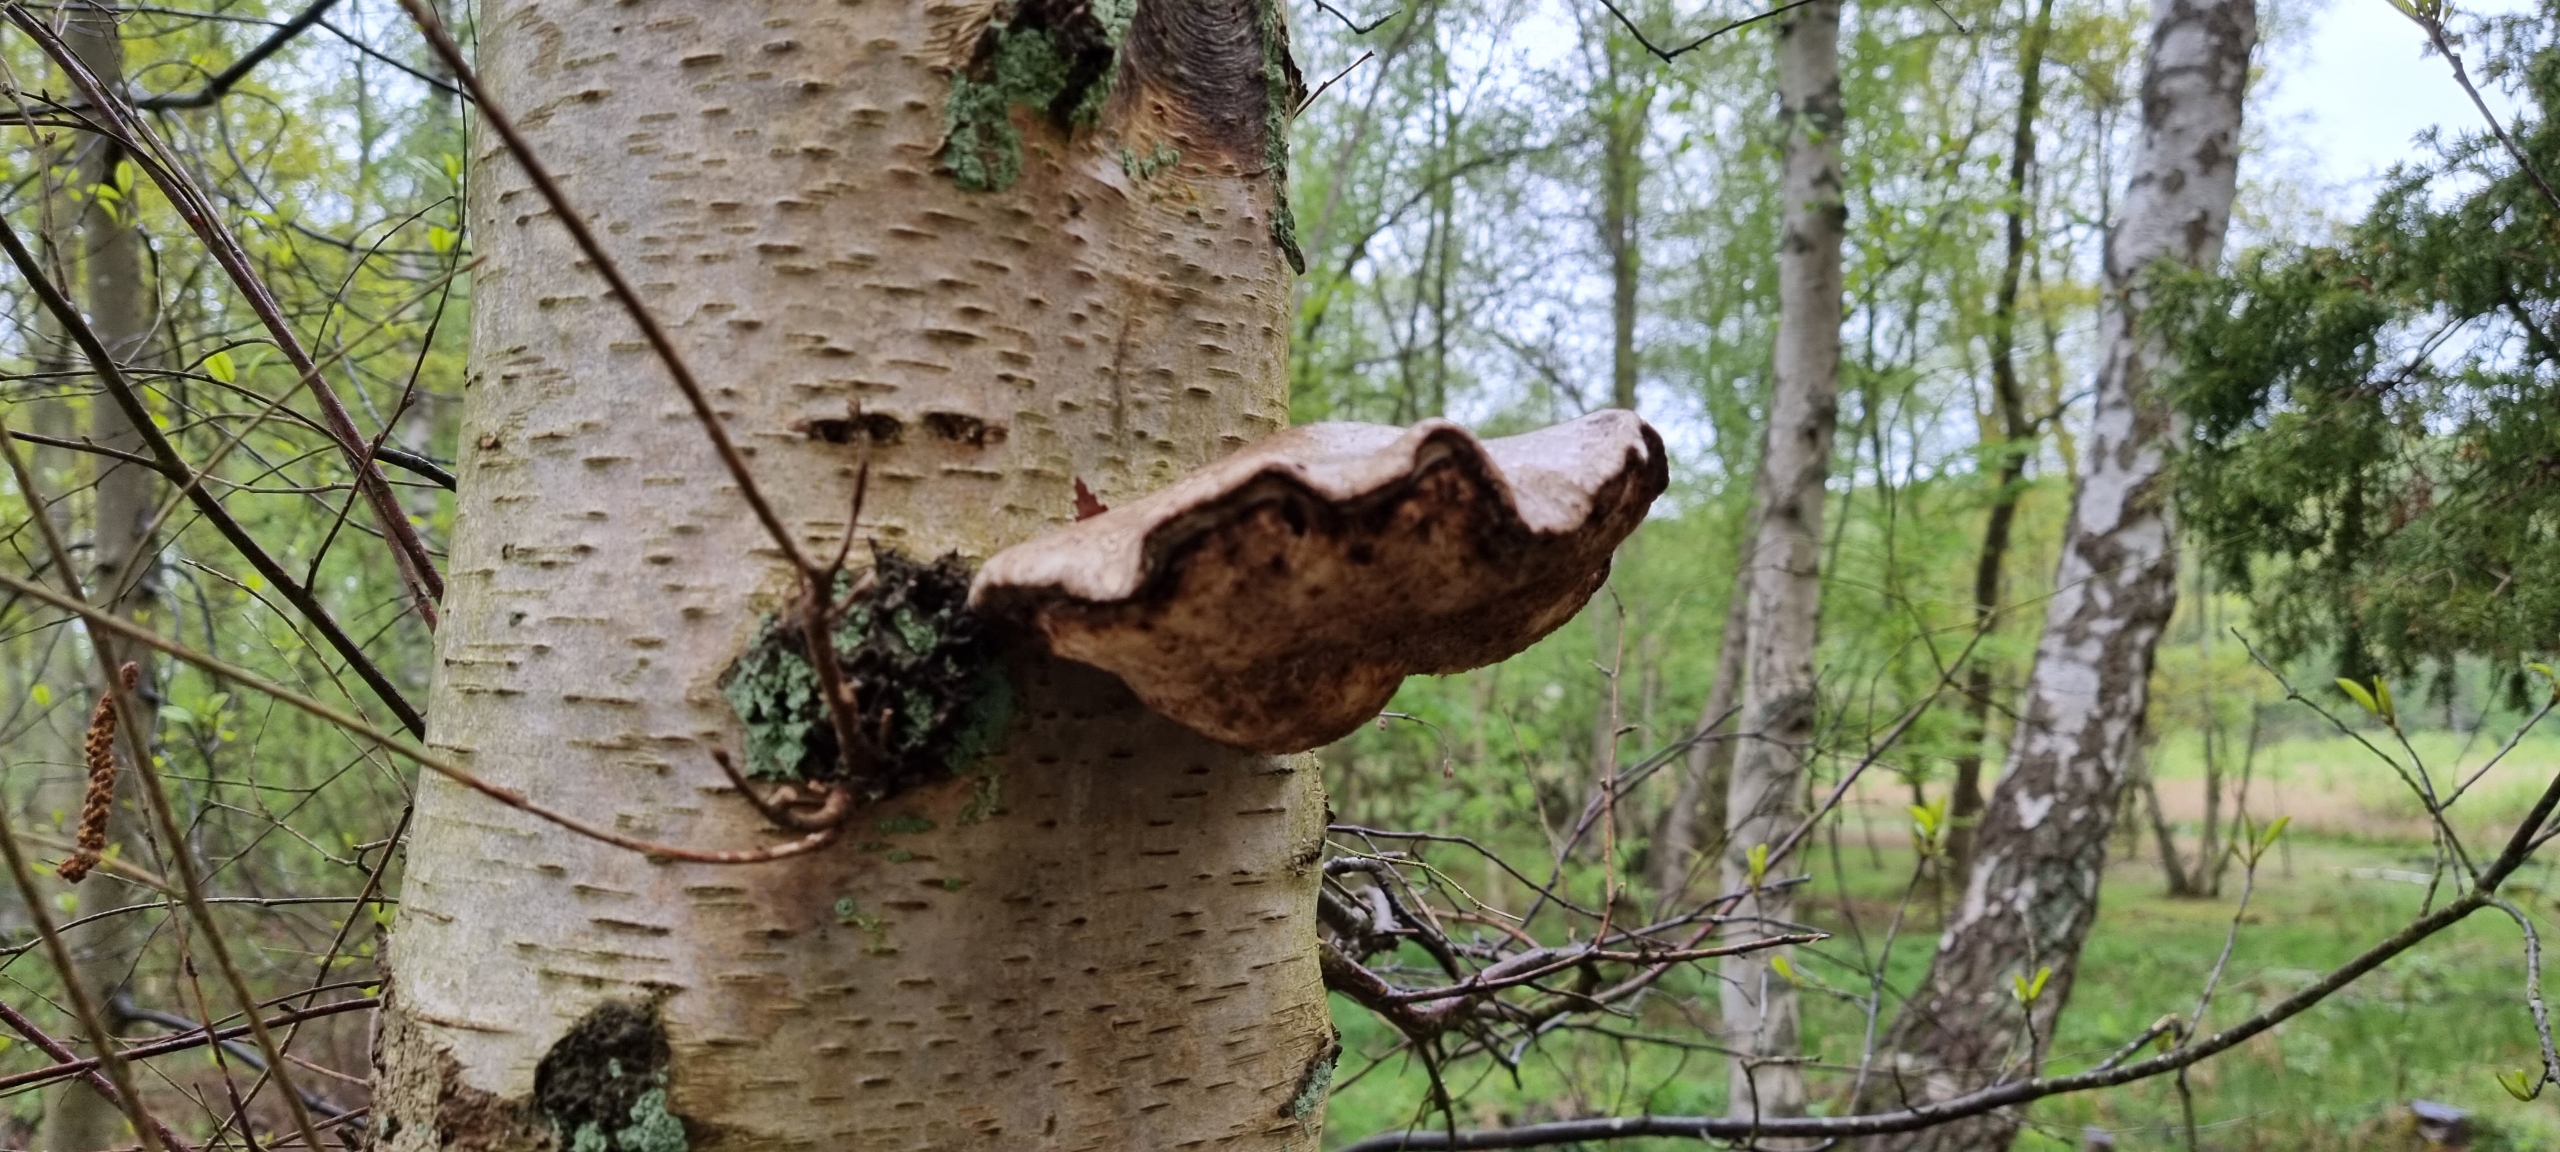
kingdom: Fungi
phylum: Basidiomycota
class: Agaricomycetes
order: Polyporales
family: Fomitopsidaceae
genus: Fomitopsis
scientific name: Fomitopsis betulina
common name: Birkeporesvamp
